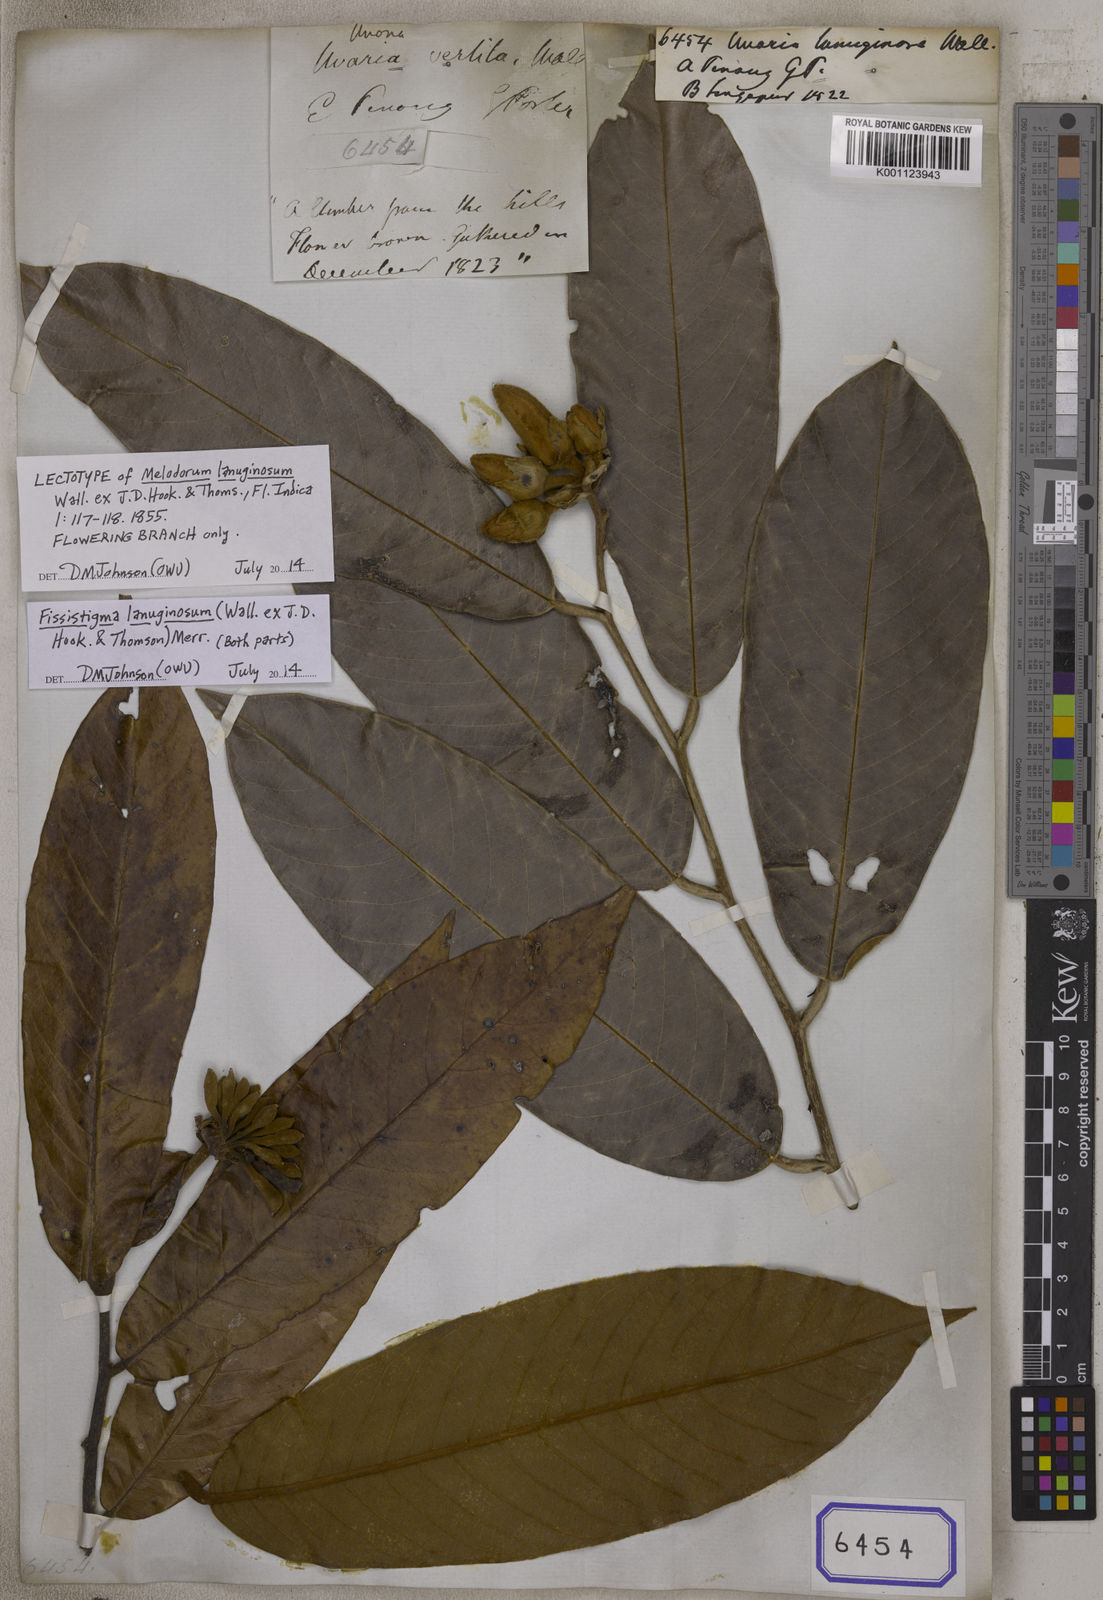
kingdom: Plantae
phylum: Tracheophyta
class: Magnoliopsida
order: Magnoliales
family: Annonaceae
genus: Fissistigma
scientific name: Fissistigma lanuginosa
